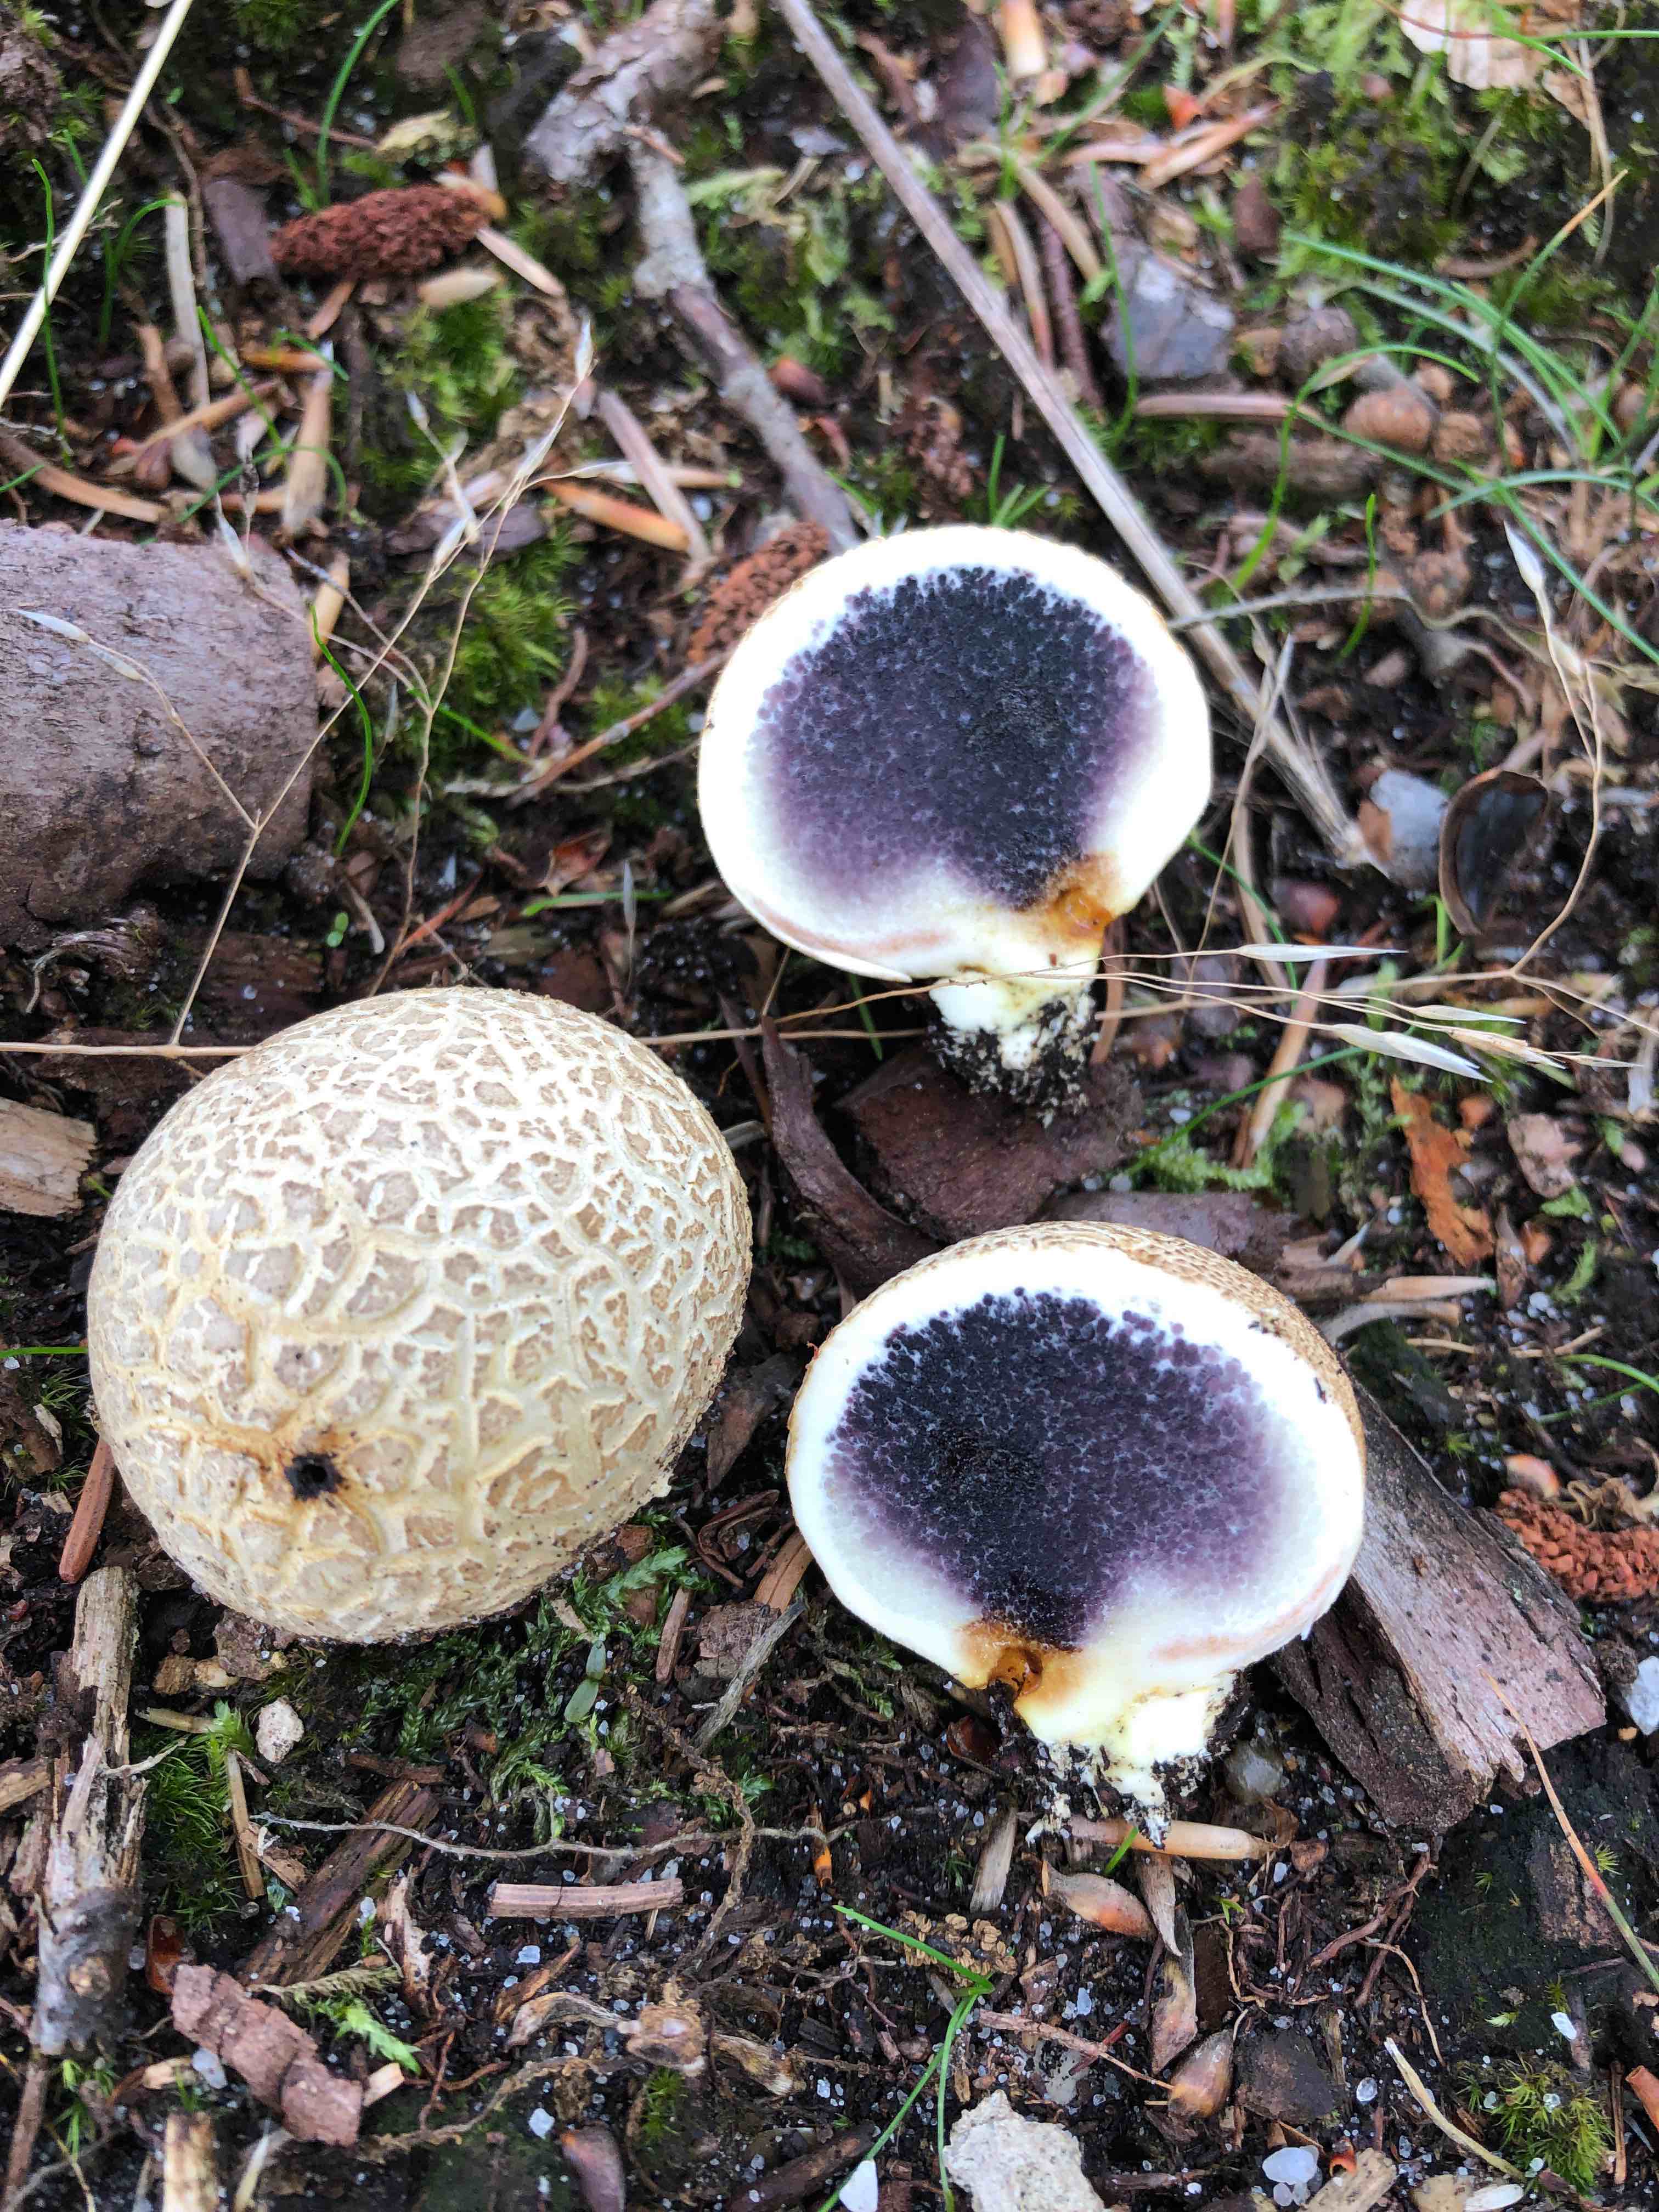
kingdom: Fungi
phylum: Basidiomycota
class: Agaricomycetes
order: Boletales
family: Sclerodermataceae
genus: Scleroderma
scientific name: Scleroderma citrinum
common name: almindelig bruskbold
